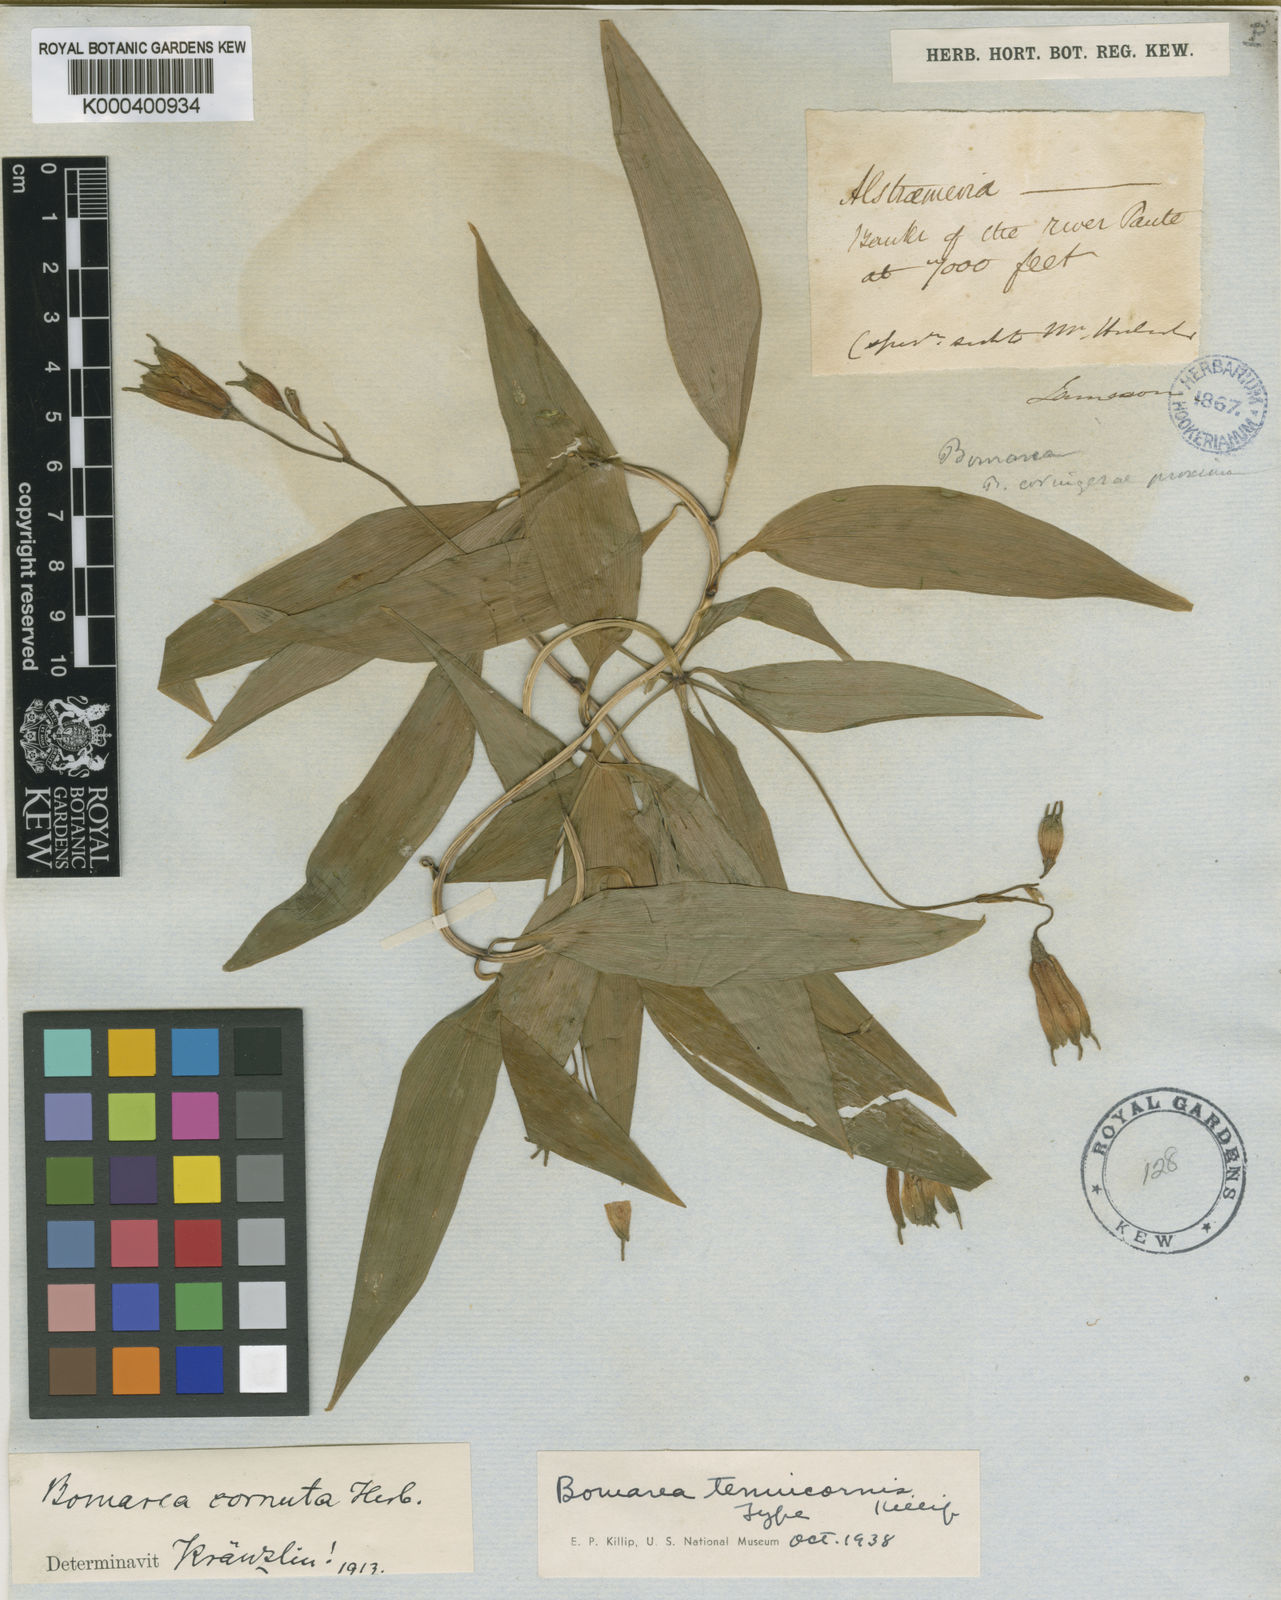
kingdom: Plantae
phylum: Tracheophyta
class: Liliopsida
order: Liliales
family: Alstroemeriaceae
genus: Bomarea
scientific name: Bomarea
